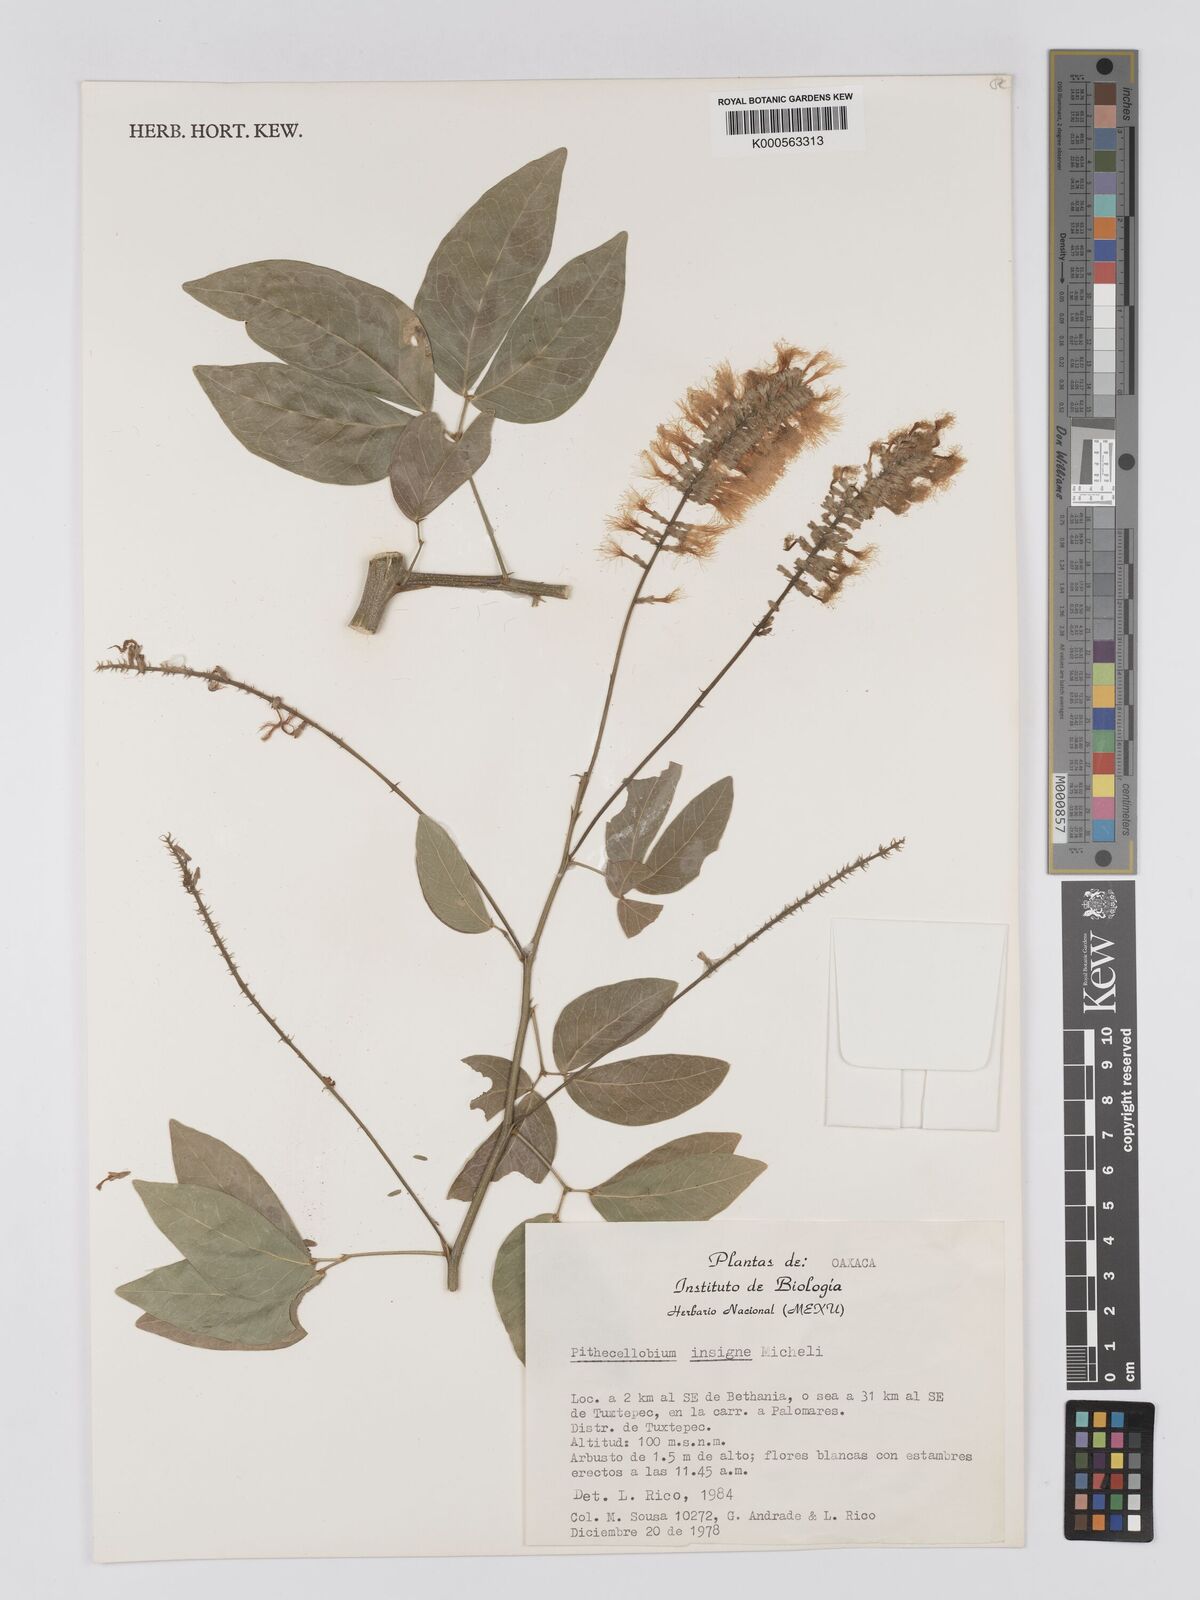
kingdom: Plantae
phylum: Tracheophyta
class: Magnoliopsida
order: Fabales
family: Fabaceae
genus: Pithecellobium
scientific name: Pithecellobium lanceolatum
